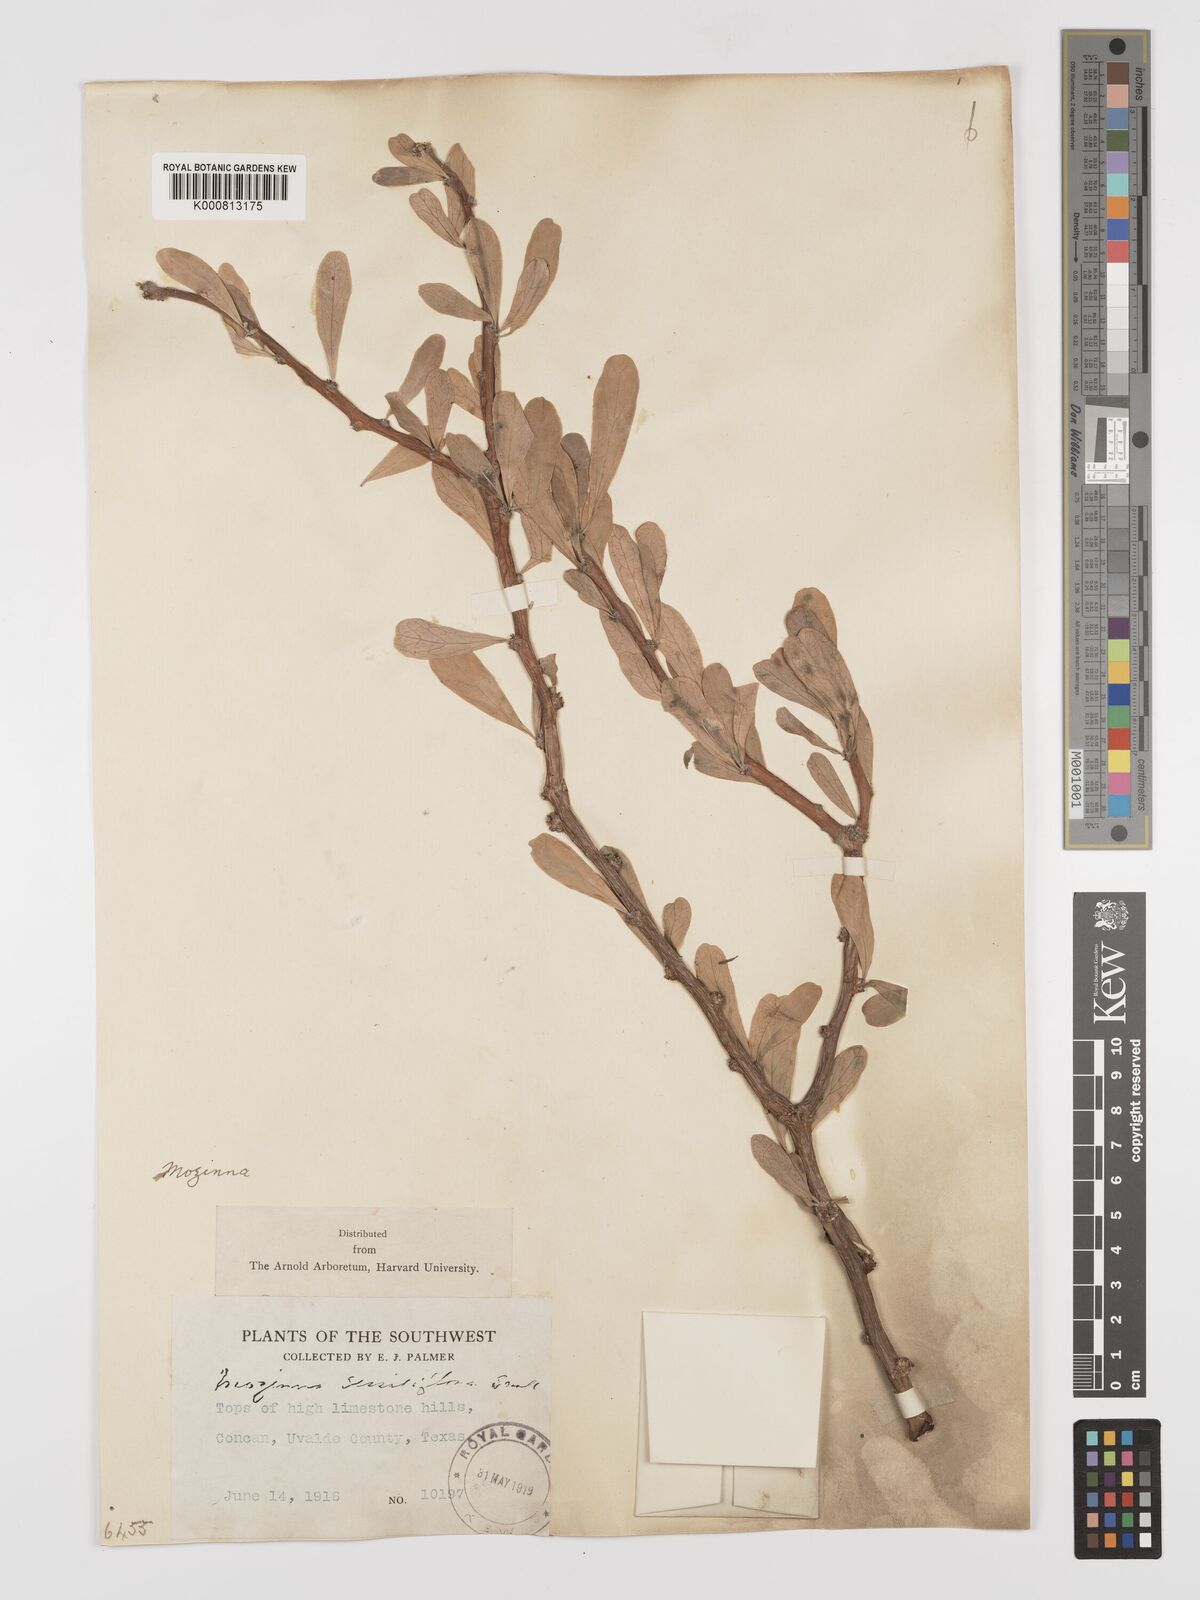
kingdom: Plantae
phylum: Tracheophyta
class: Magnoliopsida
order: Malpighiales
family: Euphorbiaceae
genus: Jatropha
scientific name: Jatropha
